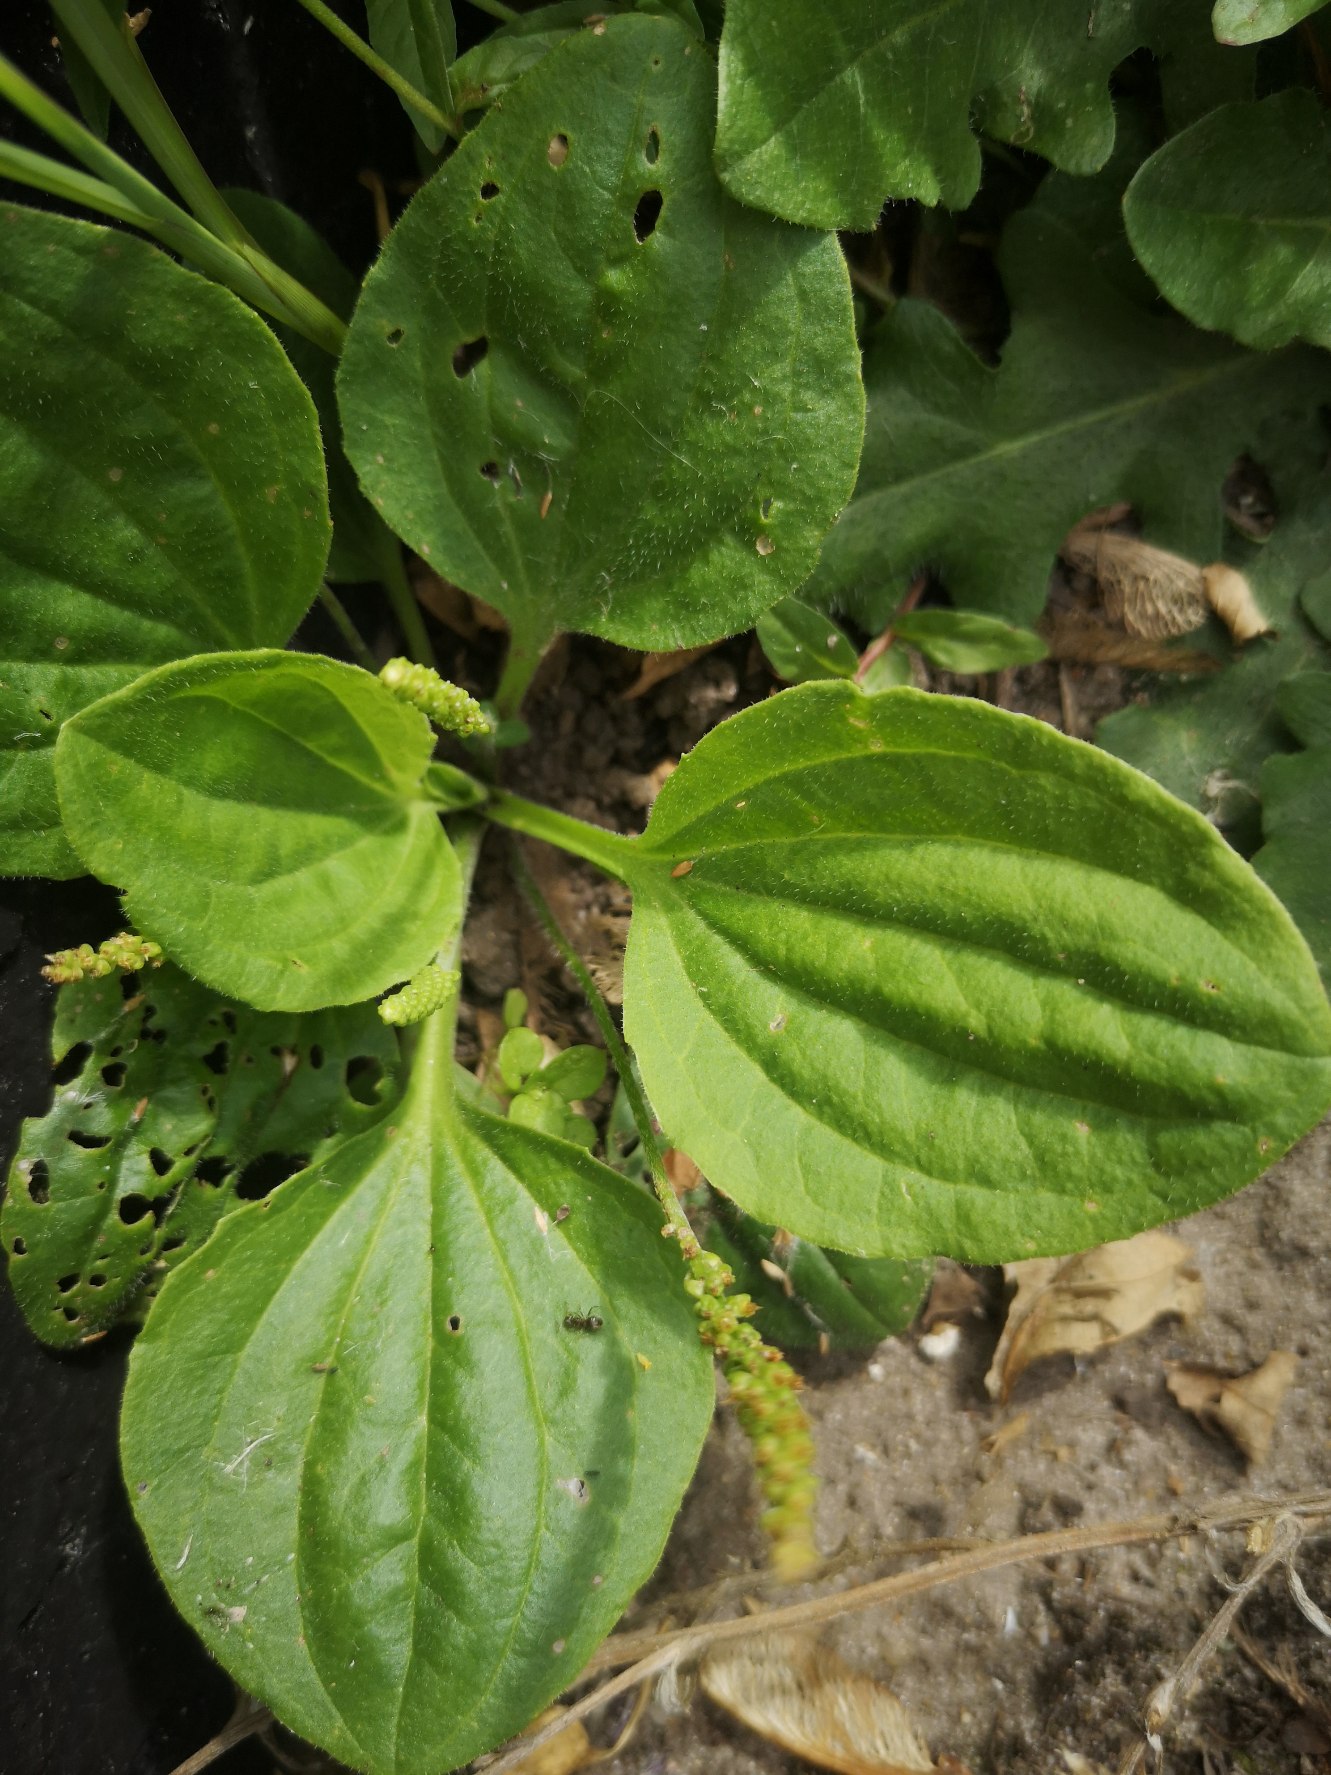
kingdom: Plantae
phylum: Tracheophyta
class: Magnoliopsida
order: Lamiales
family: Plantaginaceae
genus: Plantago
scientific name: Plantago major
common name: Glat vejbred
